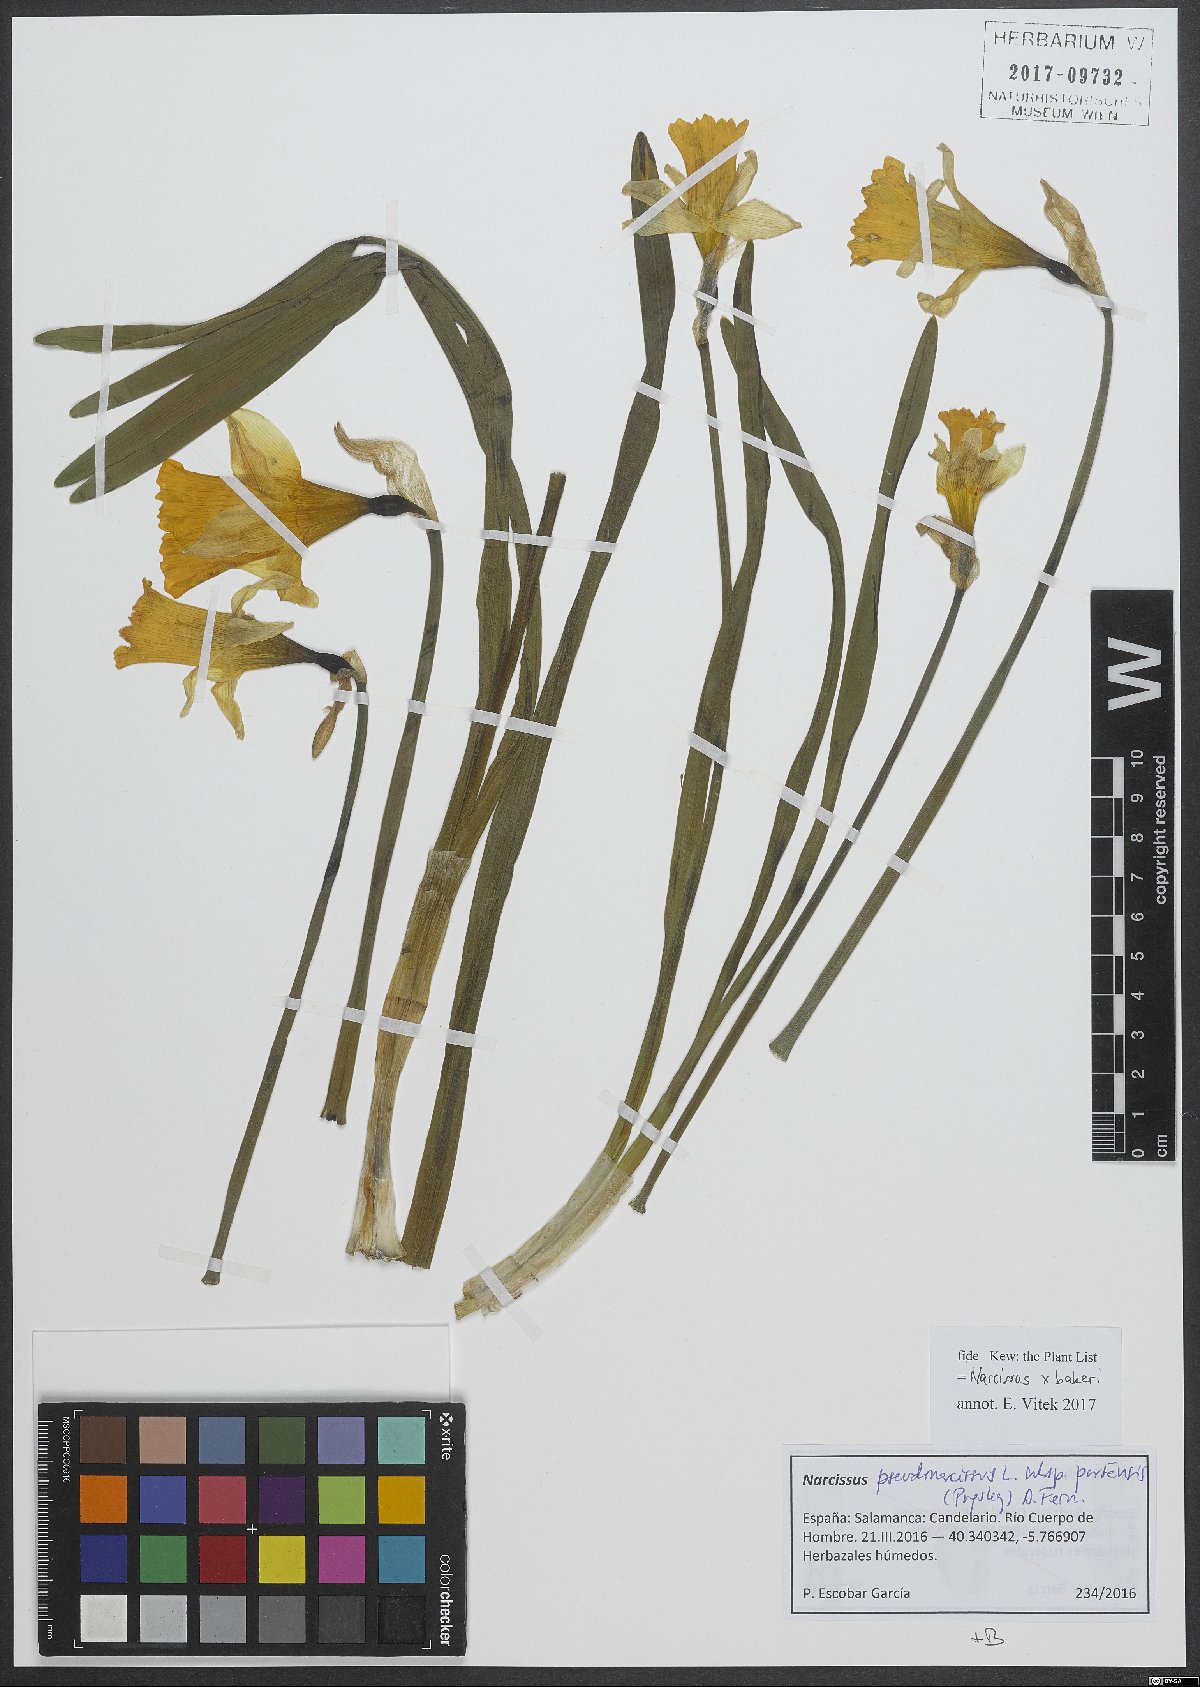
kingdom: Plantae
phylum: Tracheophyta
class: Liliopsida
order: Asparagales
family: Amaryllidaceae
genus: Narcissus
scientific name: Narcissus bakeri
